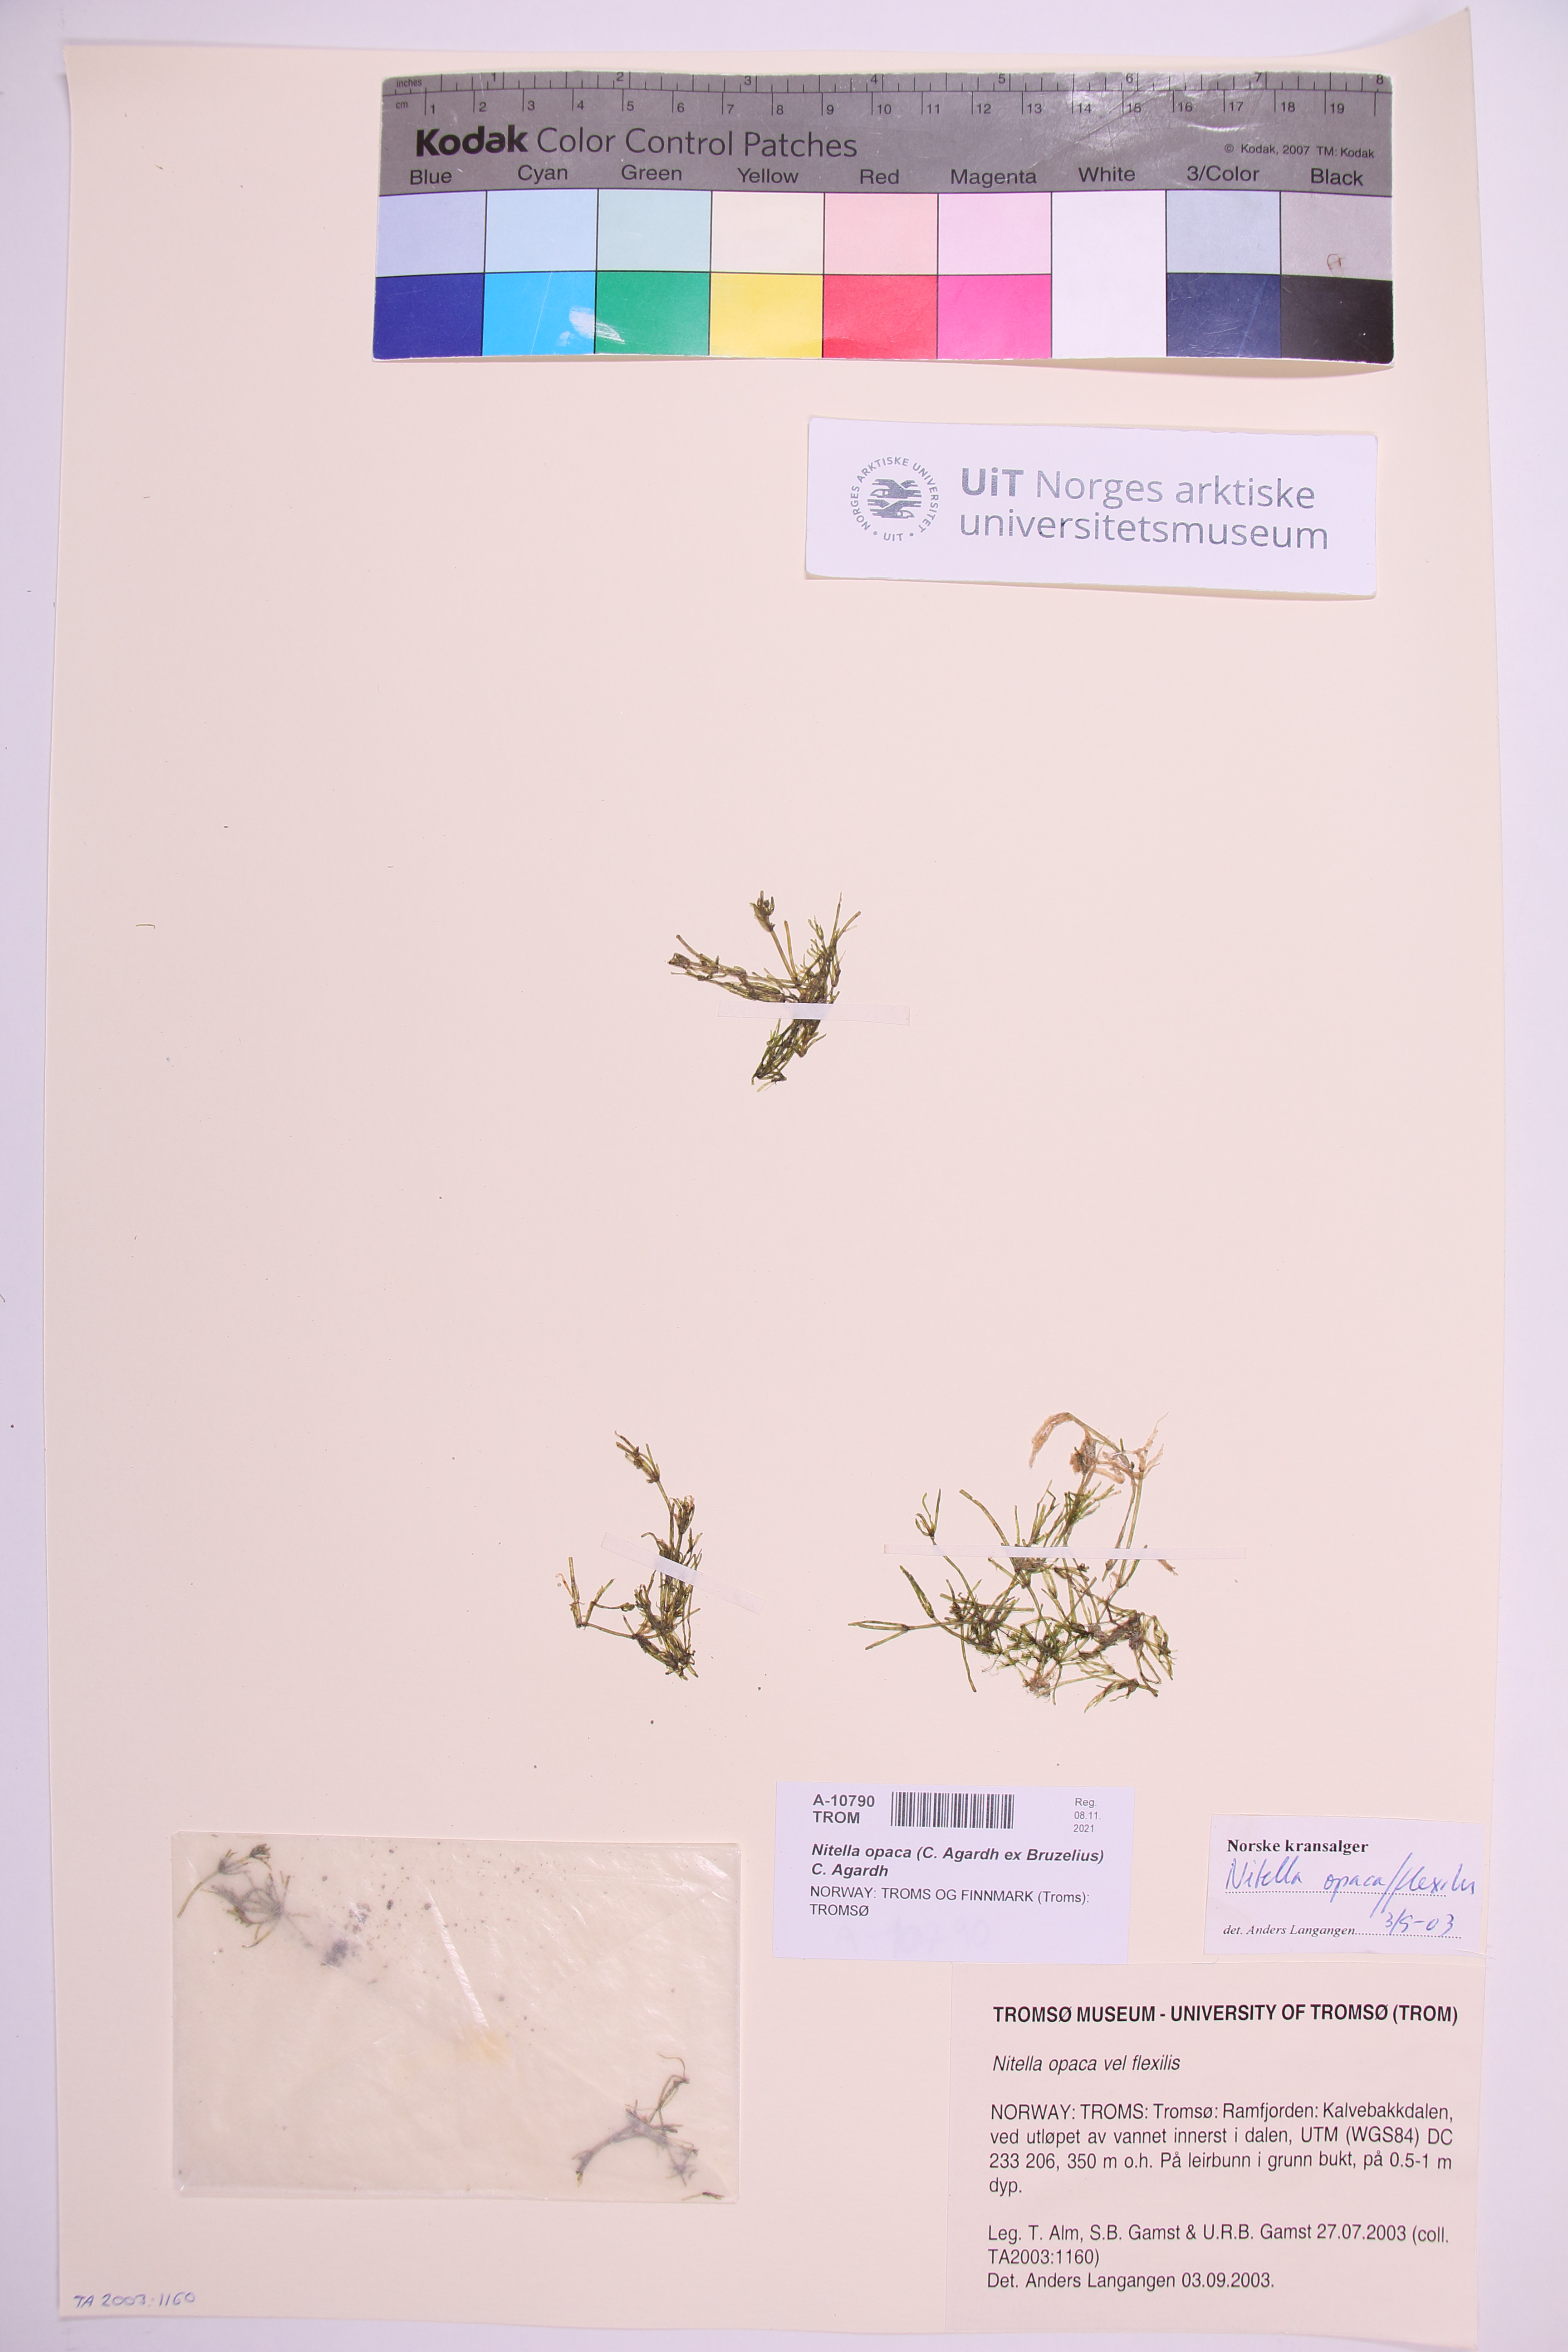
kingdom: Plantae
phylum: Charophyta
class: Charophyceae
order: Charales
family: Characeae
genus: Nitella
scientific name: Nitella opaca
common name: Dark stonewort
